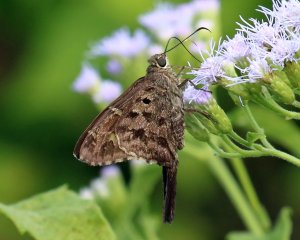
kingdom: Animalia
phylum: Arthropoda
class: Insecta
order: Lepidoptera
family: Hesperiidae
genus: Urbanus
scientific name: Urbanus dorantes
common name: Dorantes Longtail
